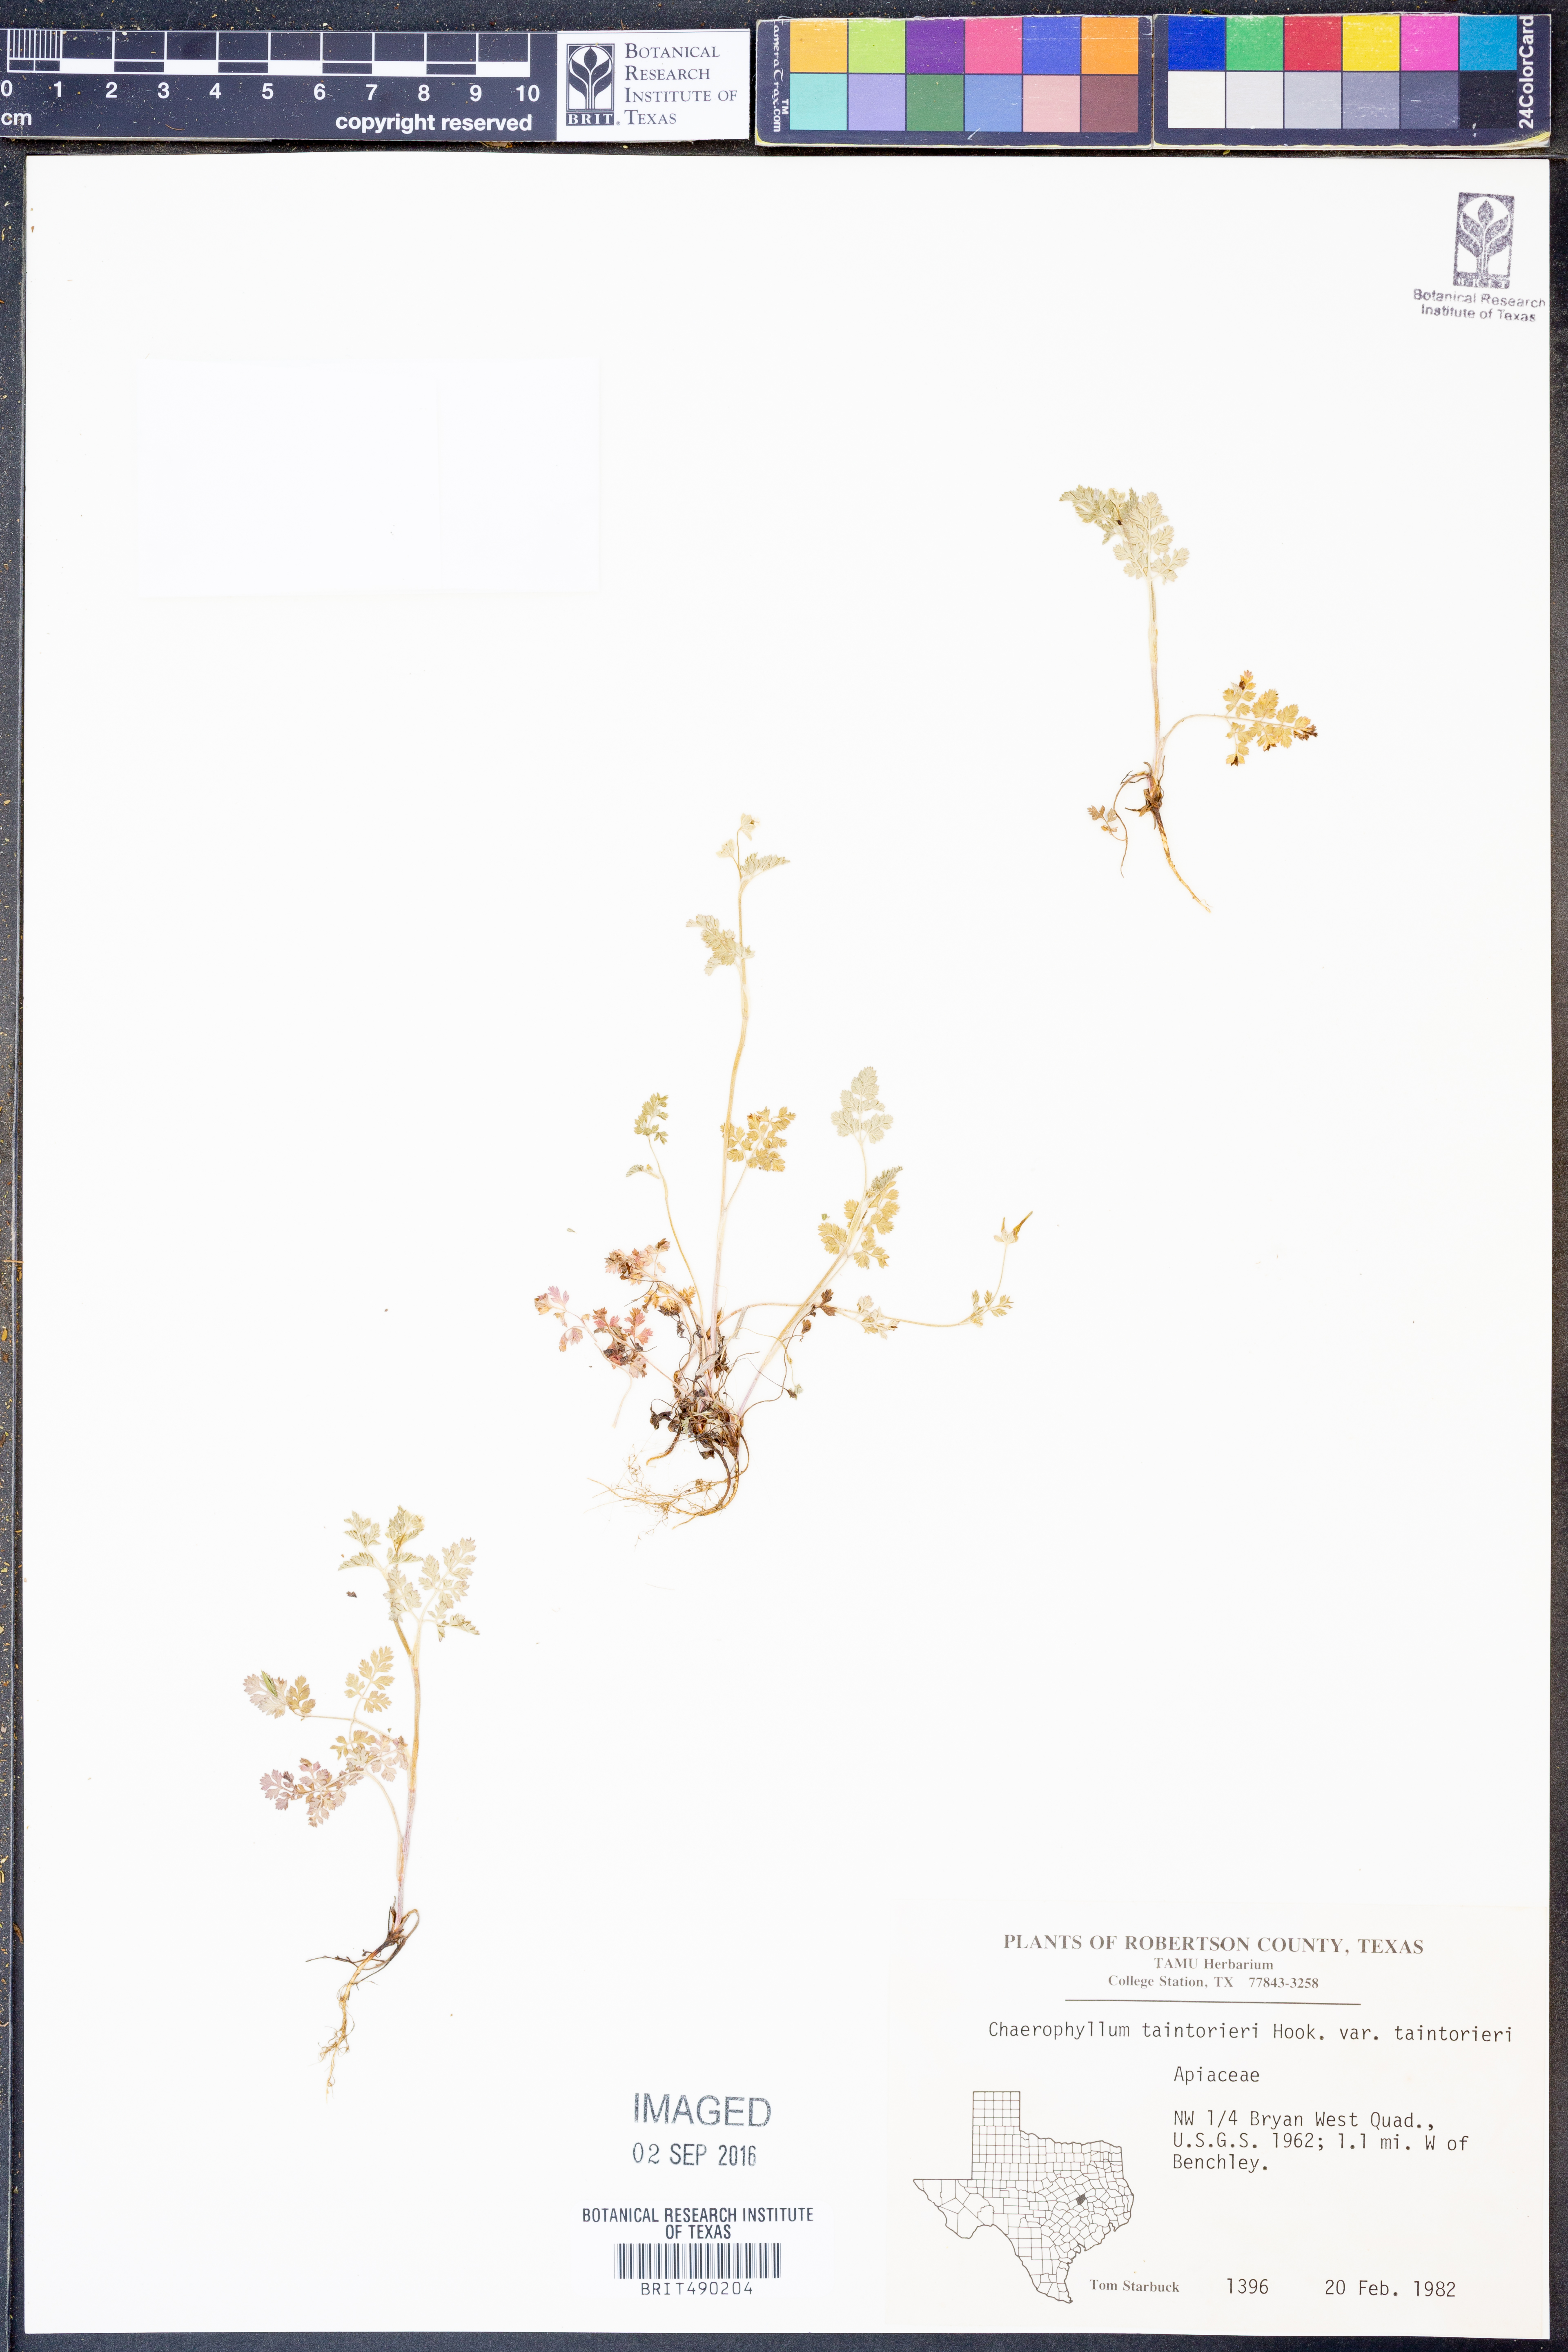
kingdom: Plantae
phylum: Tracheophyta
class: Magnoliopsida
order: Apiales
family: Apiaceae
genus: Chaerophyllum
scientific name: Chaerophyllum tainturieri
